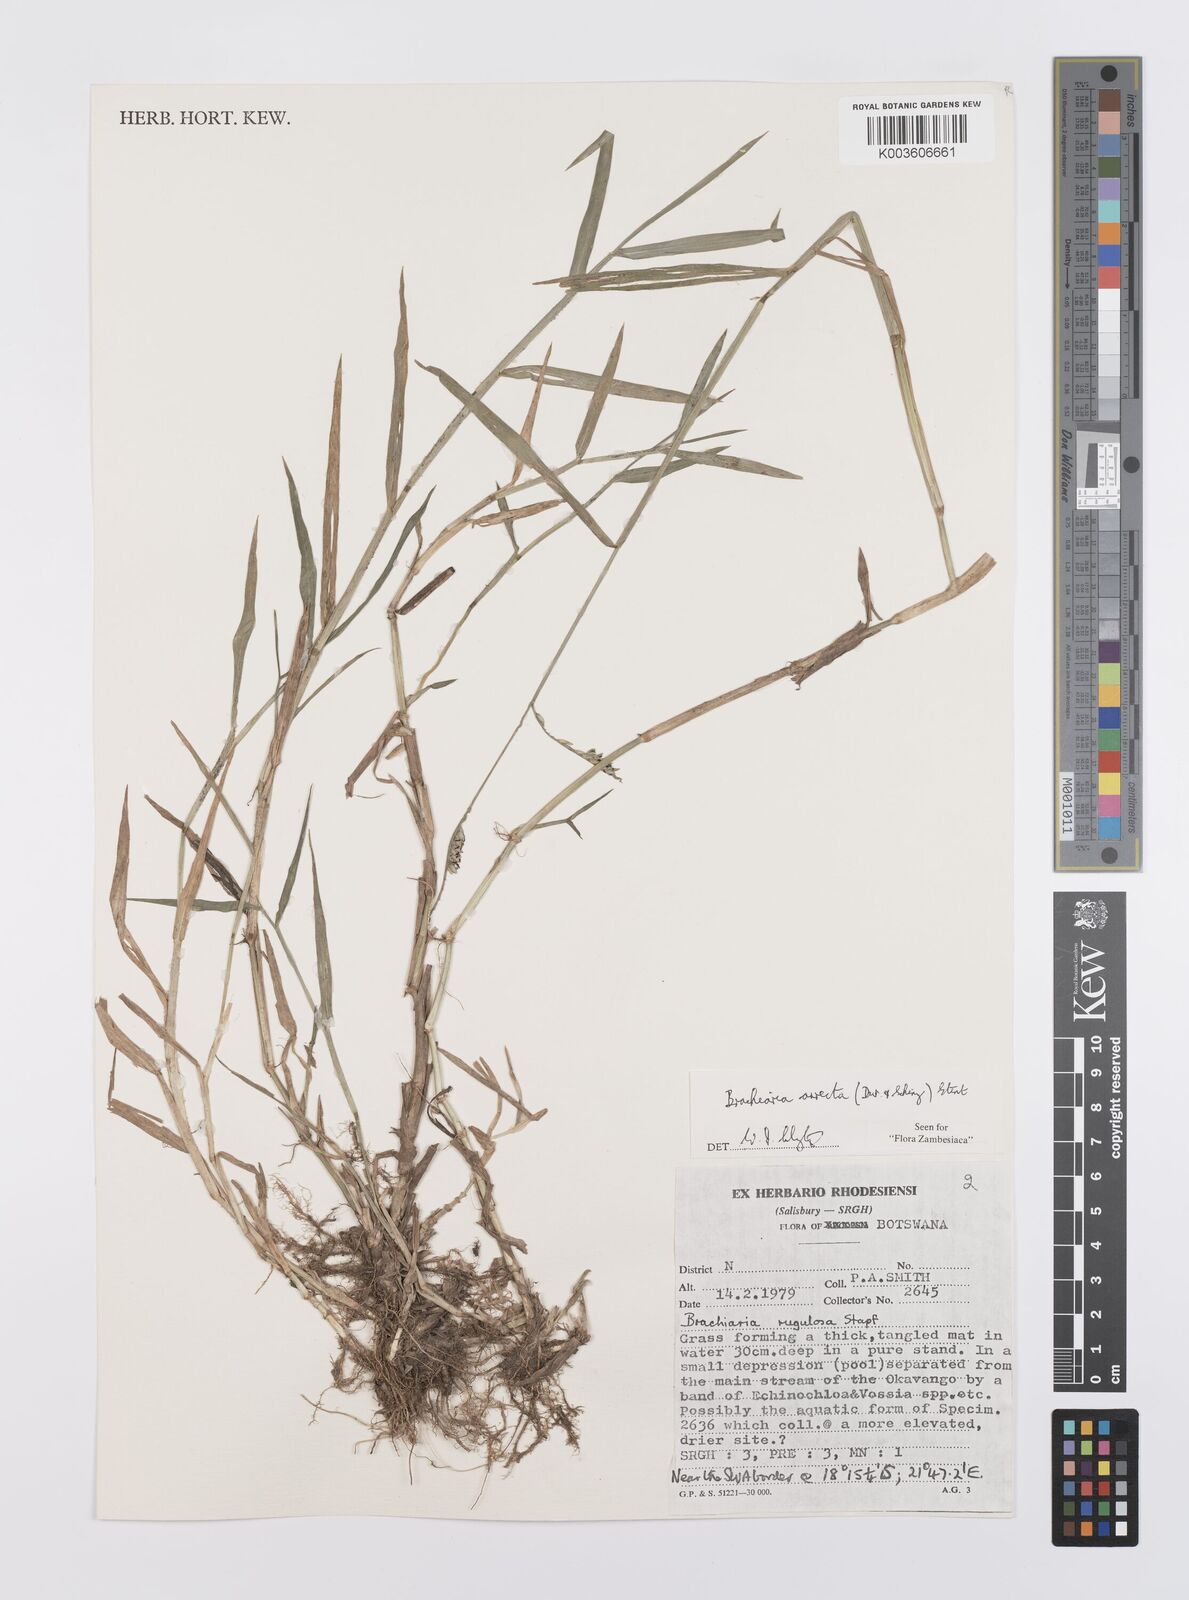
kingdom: Plantae
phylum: Tracheophyta
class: Liliopsida
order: Poales
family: Poaceae
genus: Urochloa
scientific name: Urochloa arrecta
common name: African signalgrass
